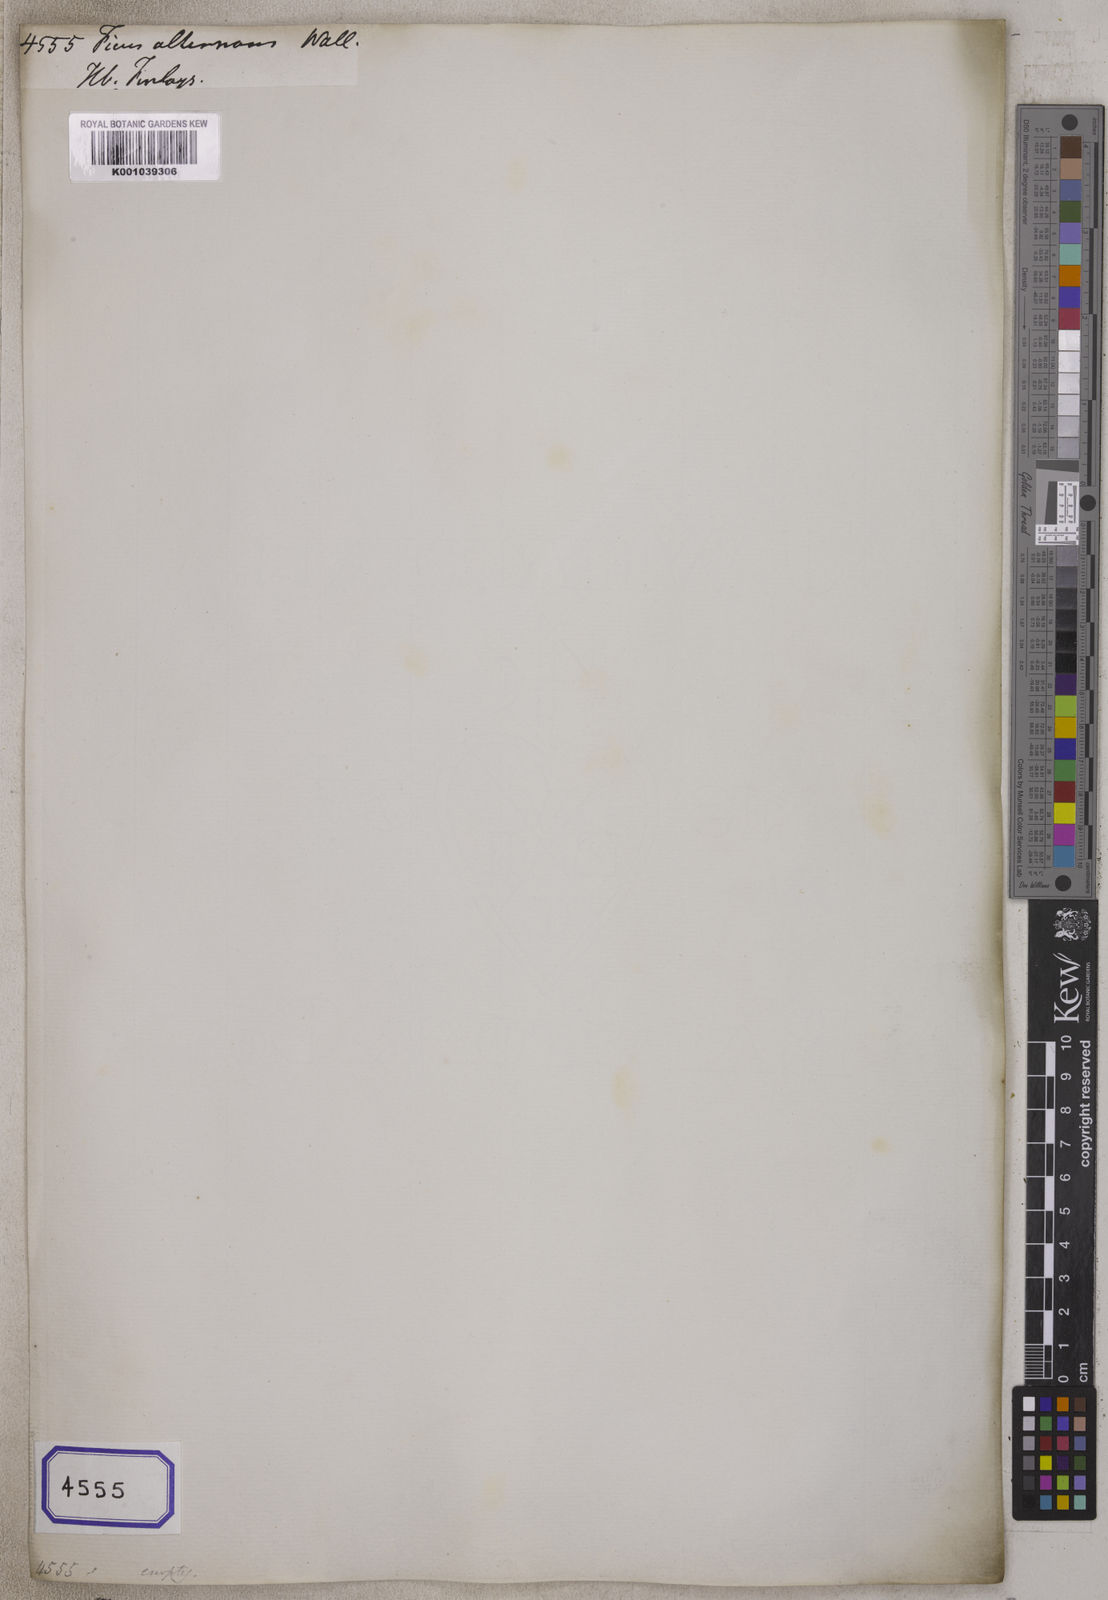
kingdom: Plantae
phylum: Tracheophyta
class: Magnoliopsida
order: Rosales
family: Moraceae
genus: Ficus
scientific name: Ficus
